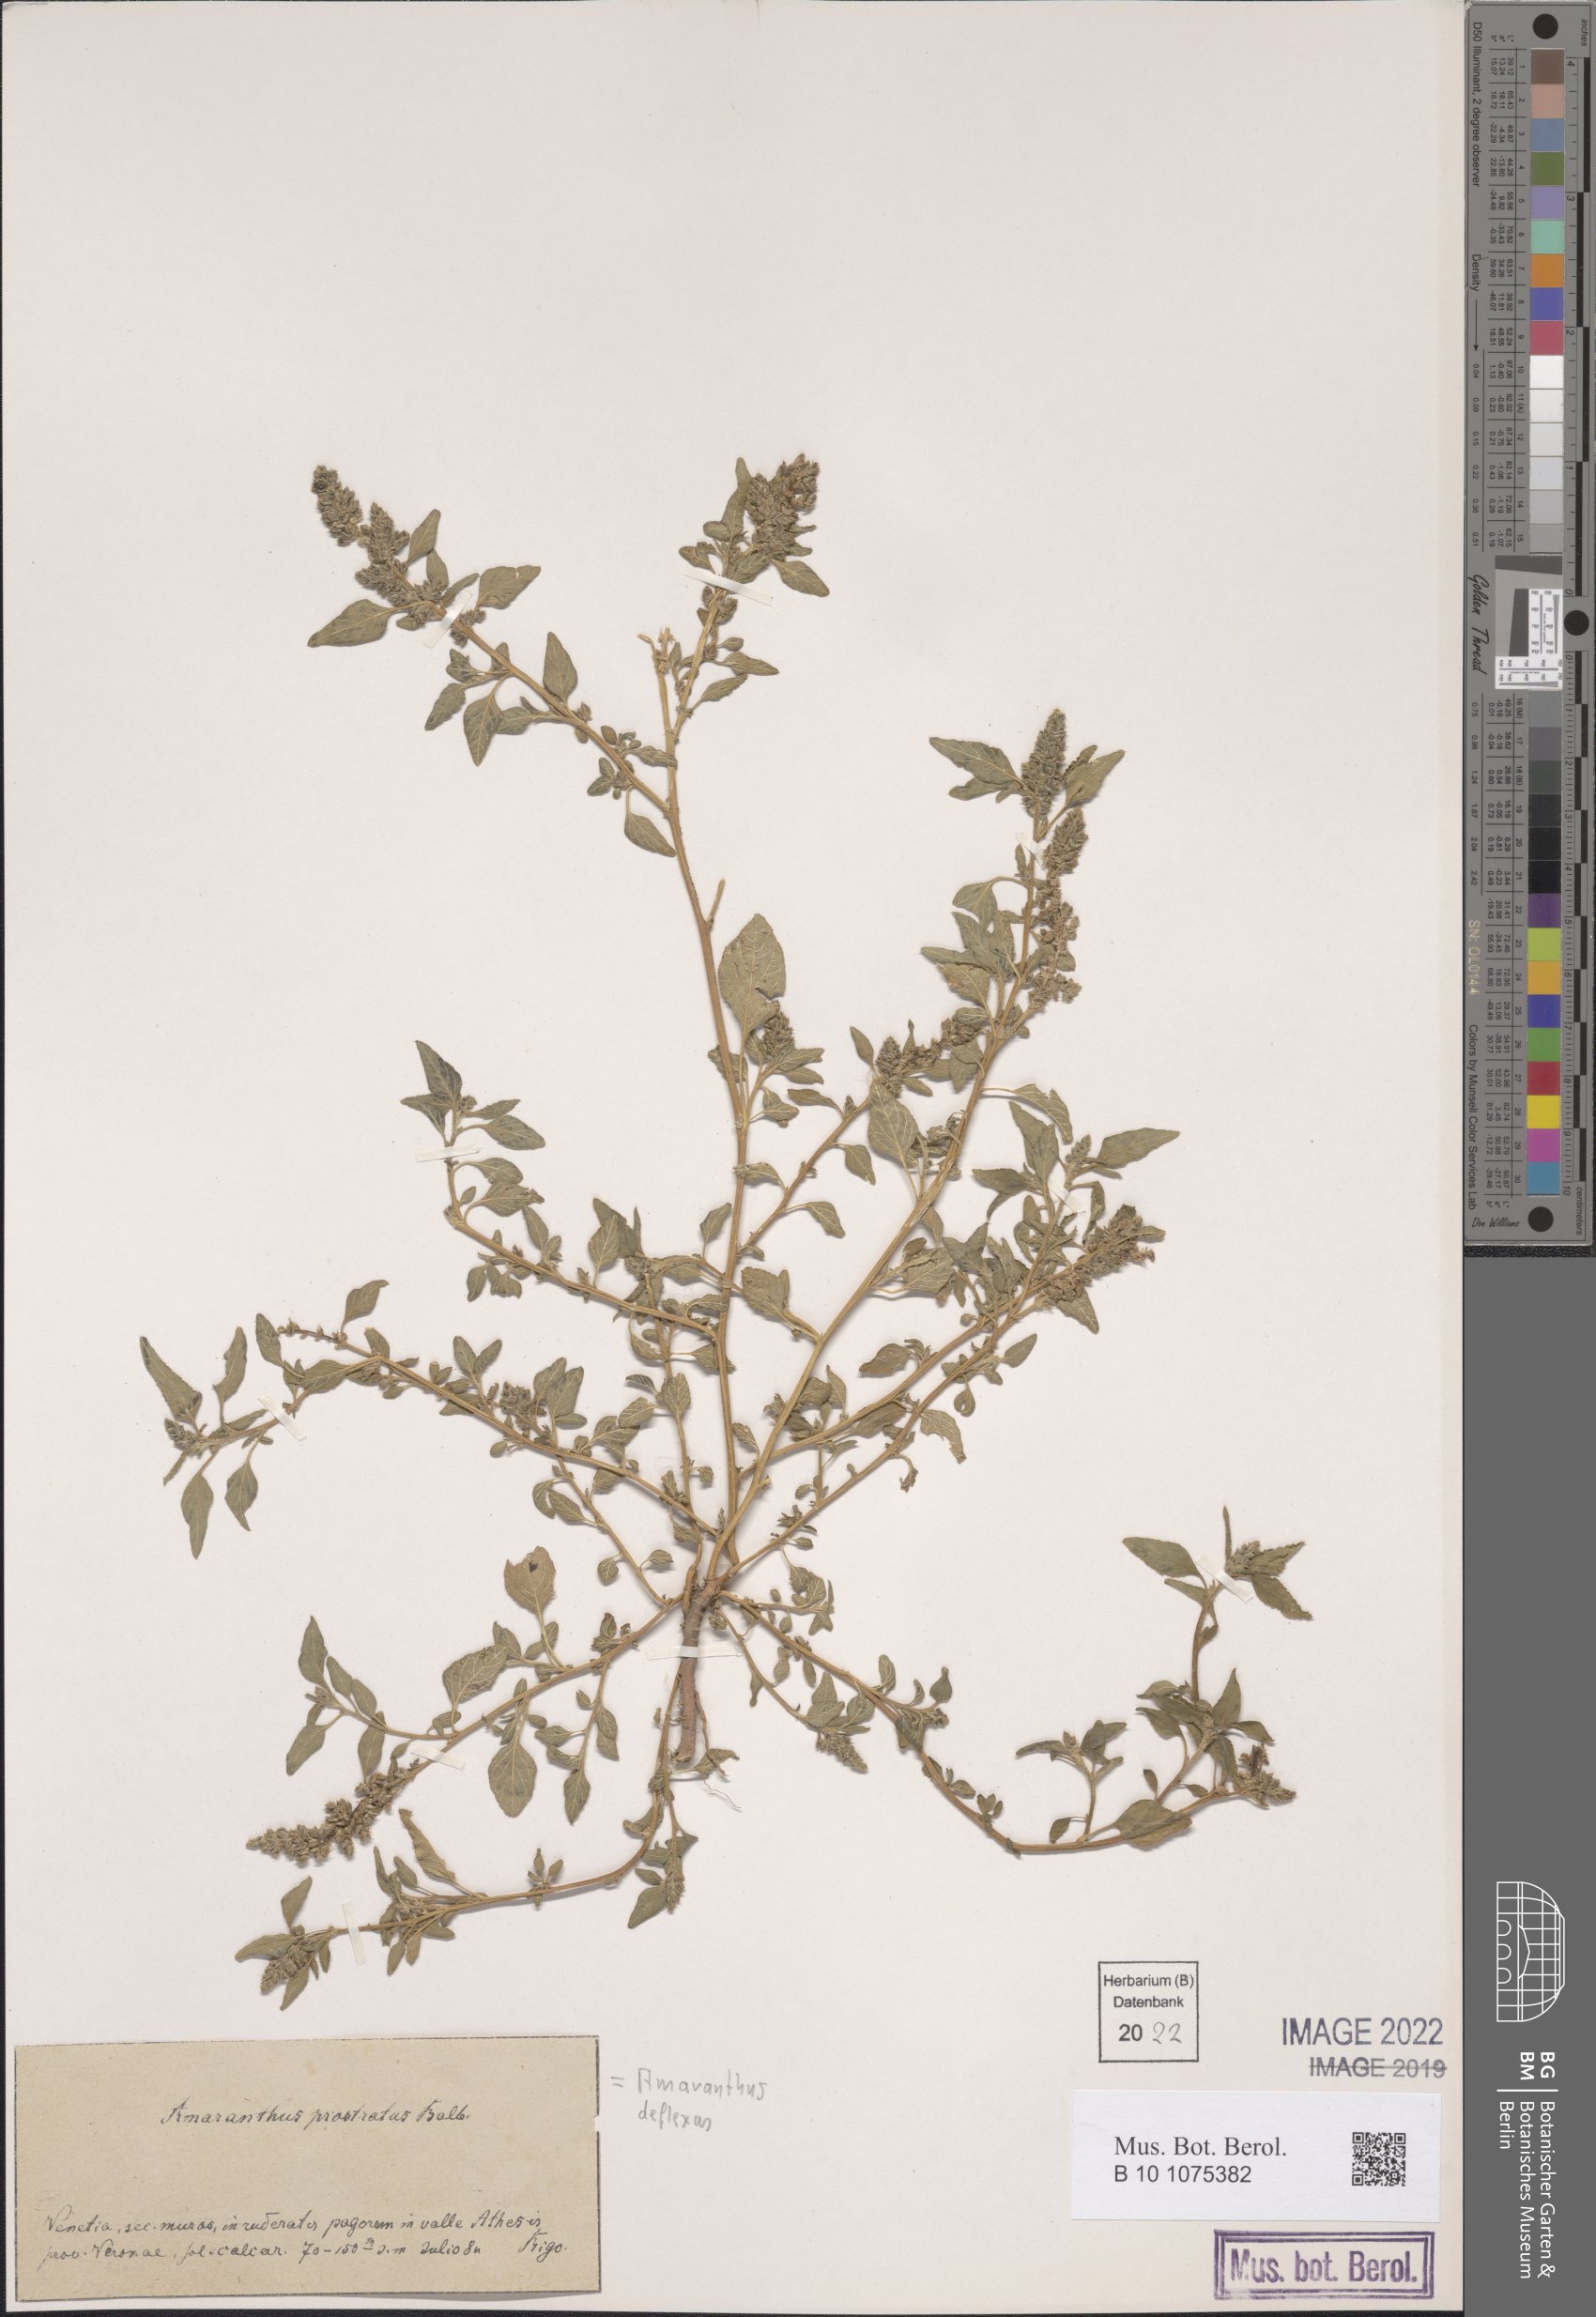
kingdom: Plantae
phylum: Tracheophyta
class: Magnoliopsida
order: Caryophyllales
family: Amaranthaceae
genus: Amaranthus
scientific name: Amaranthus deflexus
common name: Perennial pigweed
